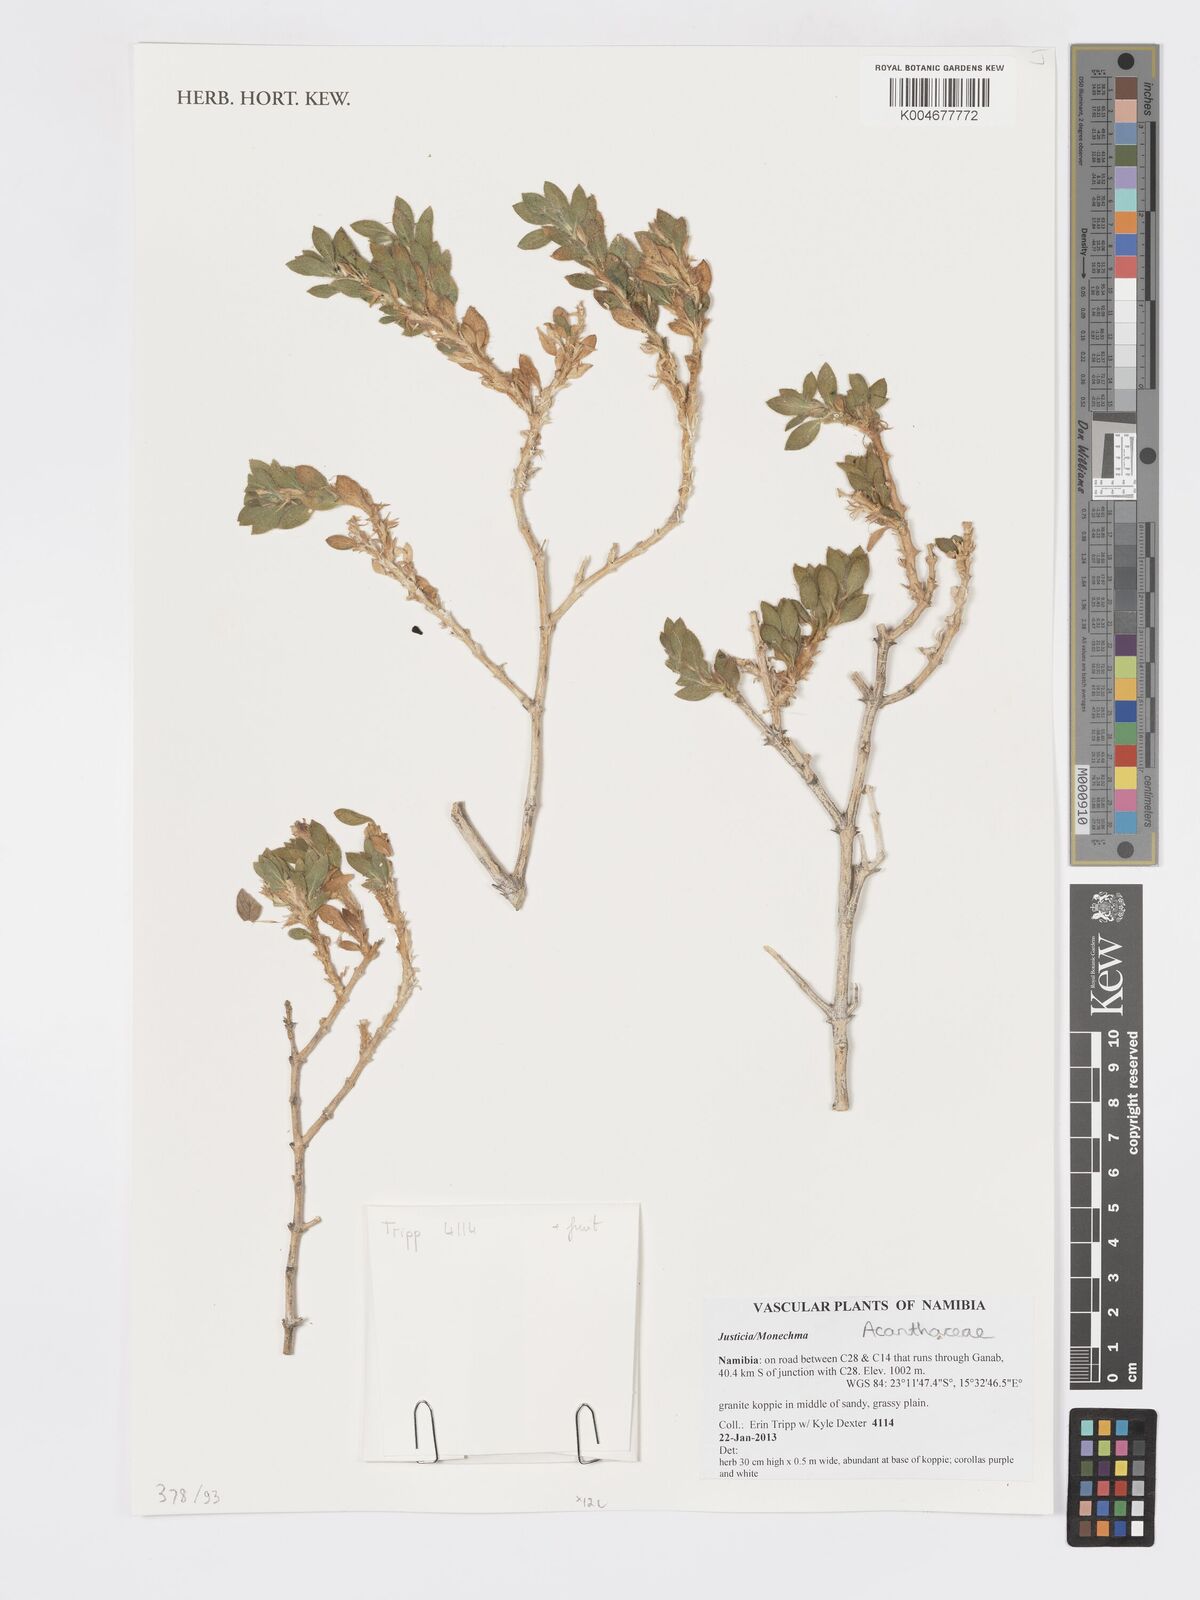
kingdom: Plantae
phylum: Tracheophyta
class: Magnoliopsida
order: Lamiales
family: Acanthaceae
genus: Pogonospermum
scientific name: Pogonospermum ciliare
